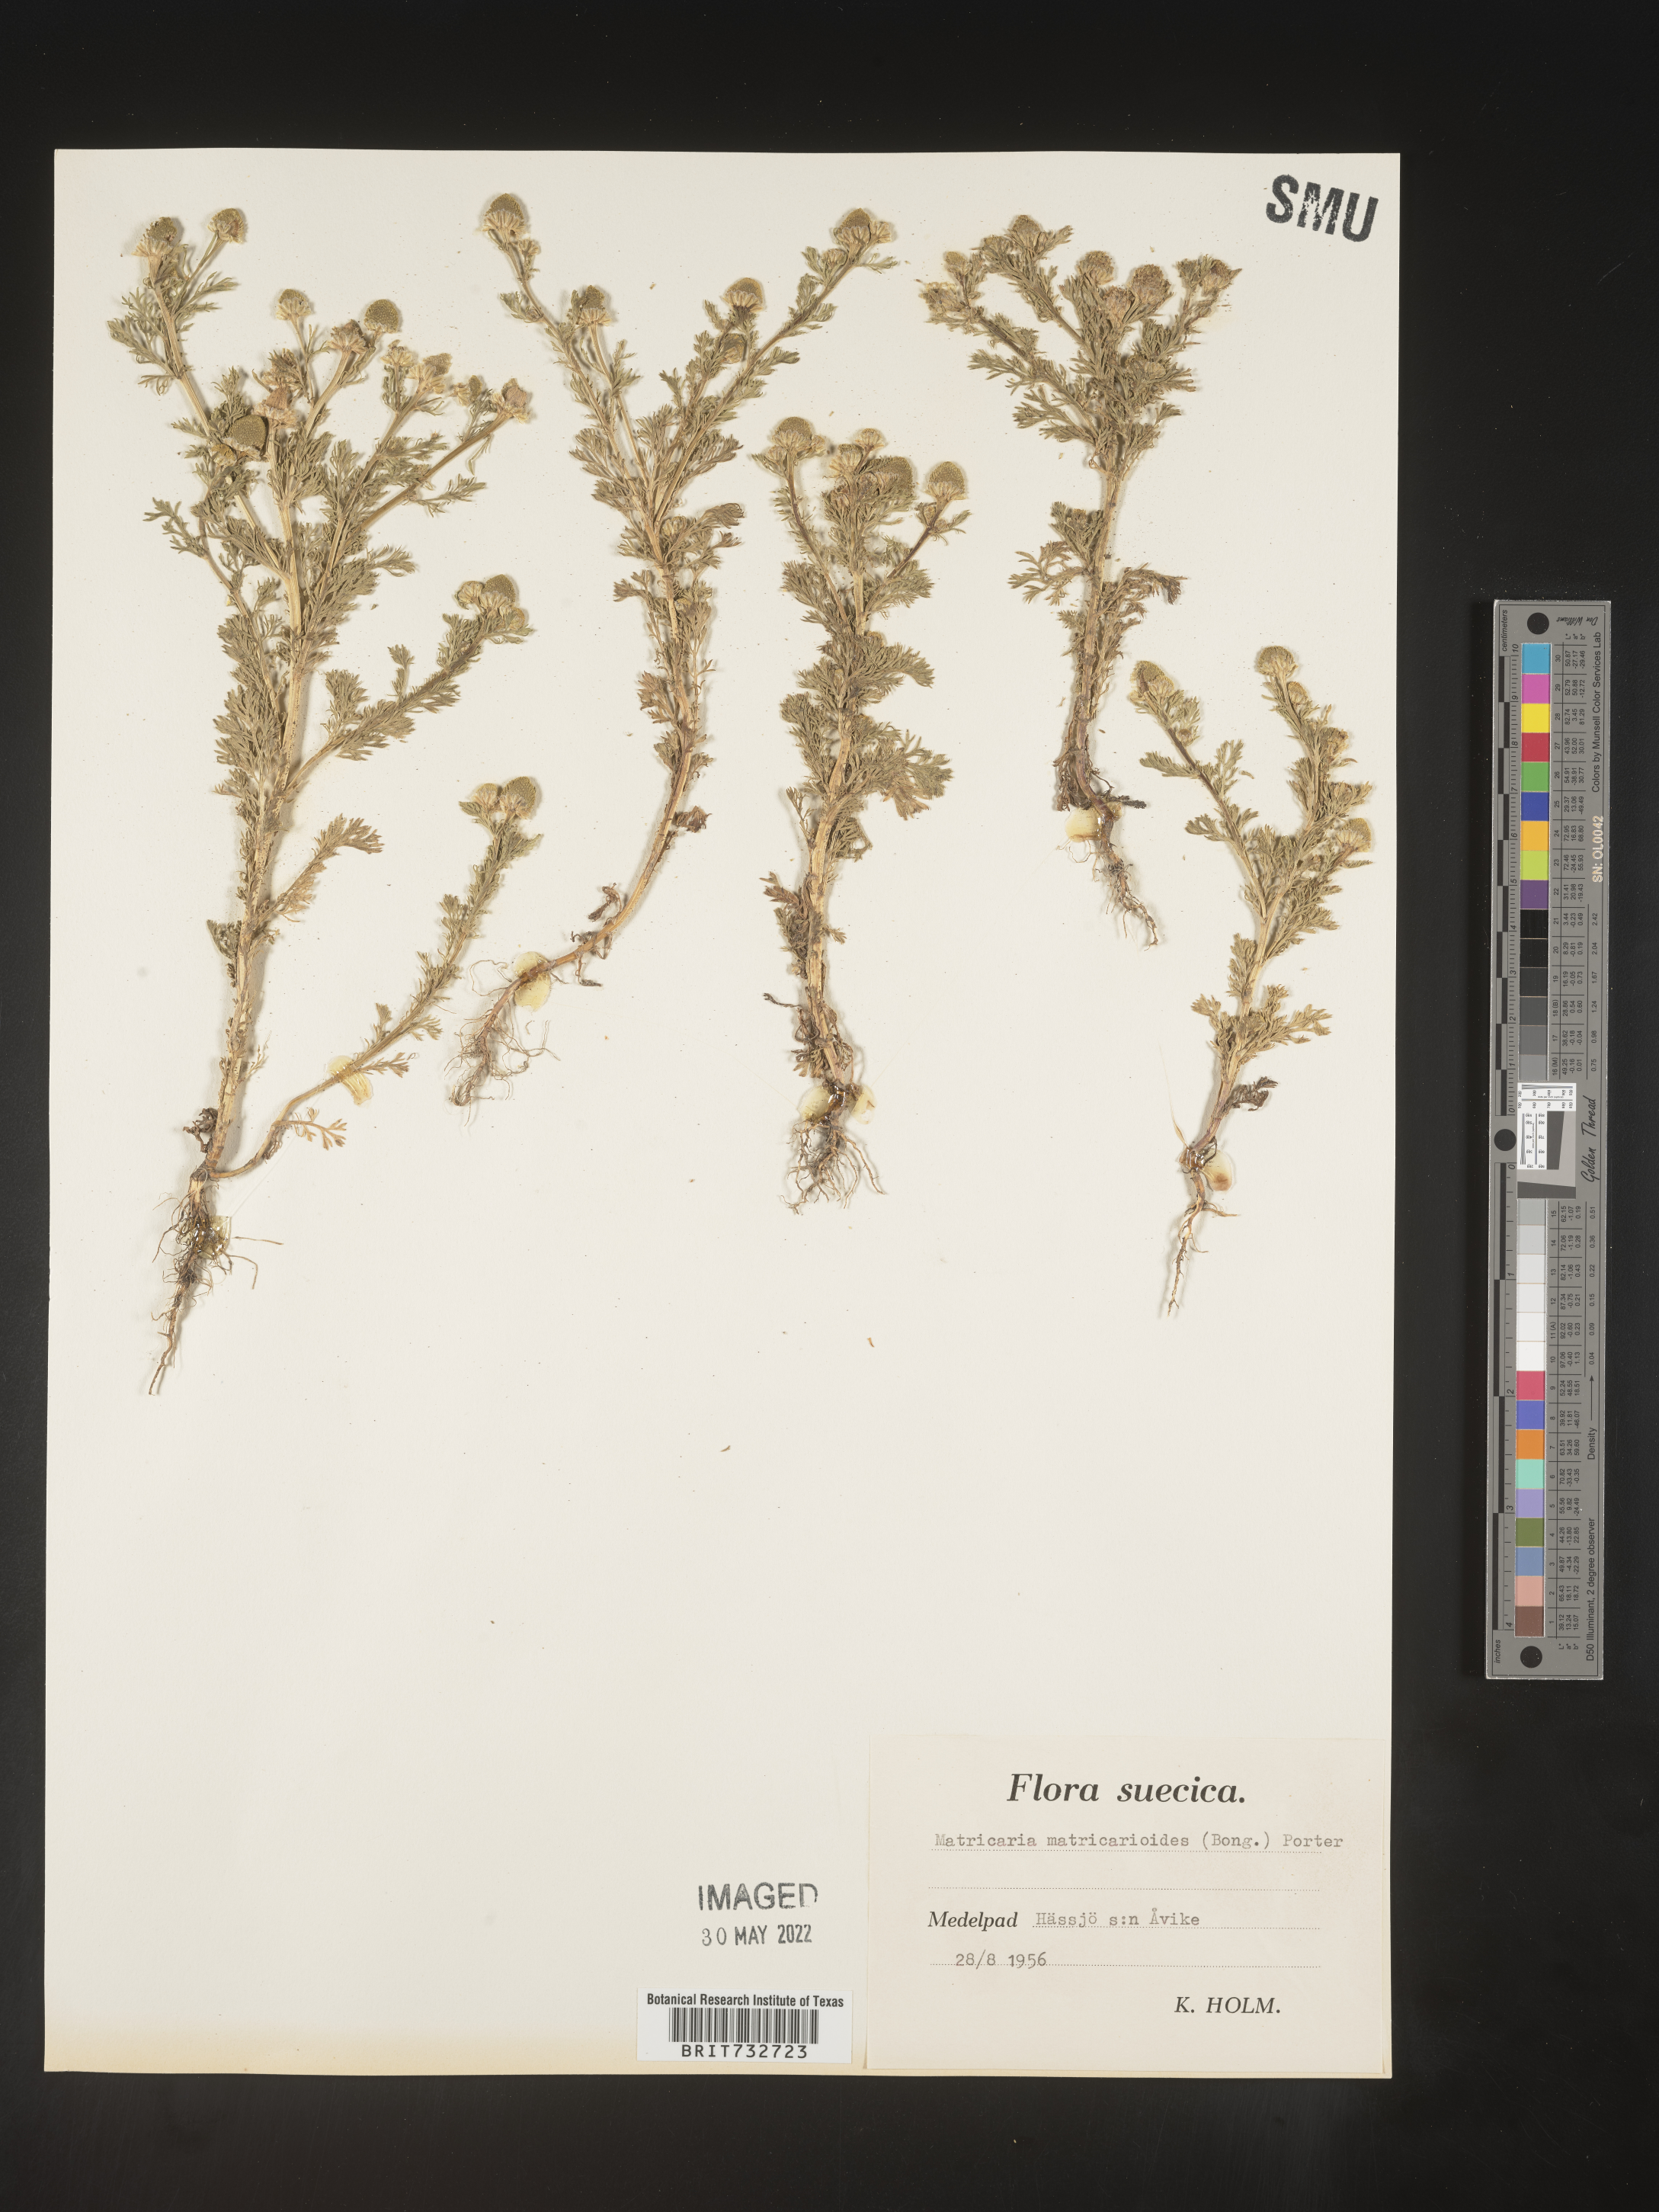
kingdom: Plantae
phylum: Tracheophyta
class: Magnoliopsida
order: Asterales
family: Asteraceae
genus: Matricaria
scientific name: Matricaria
